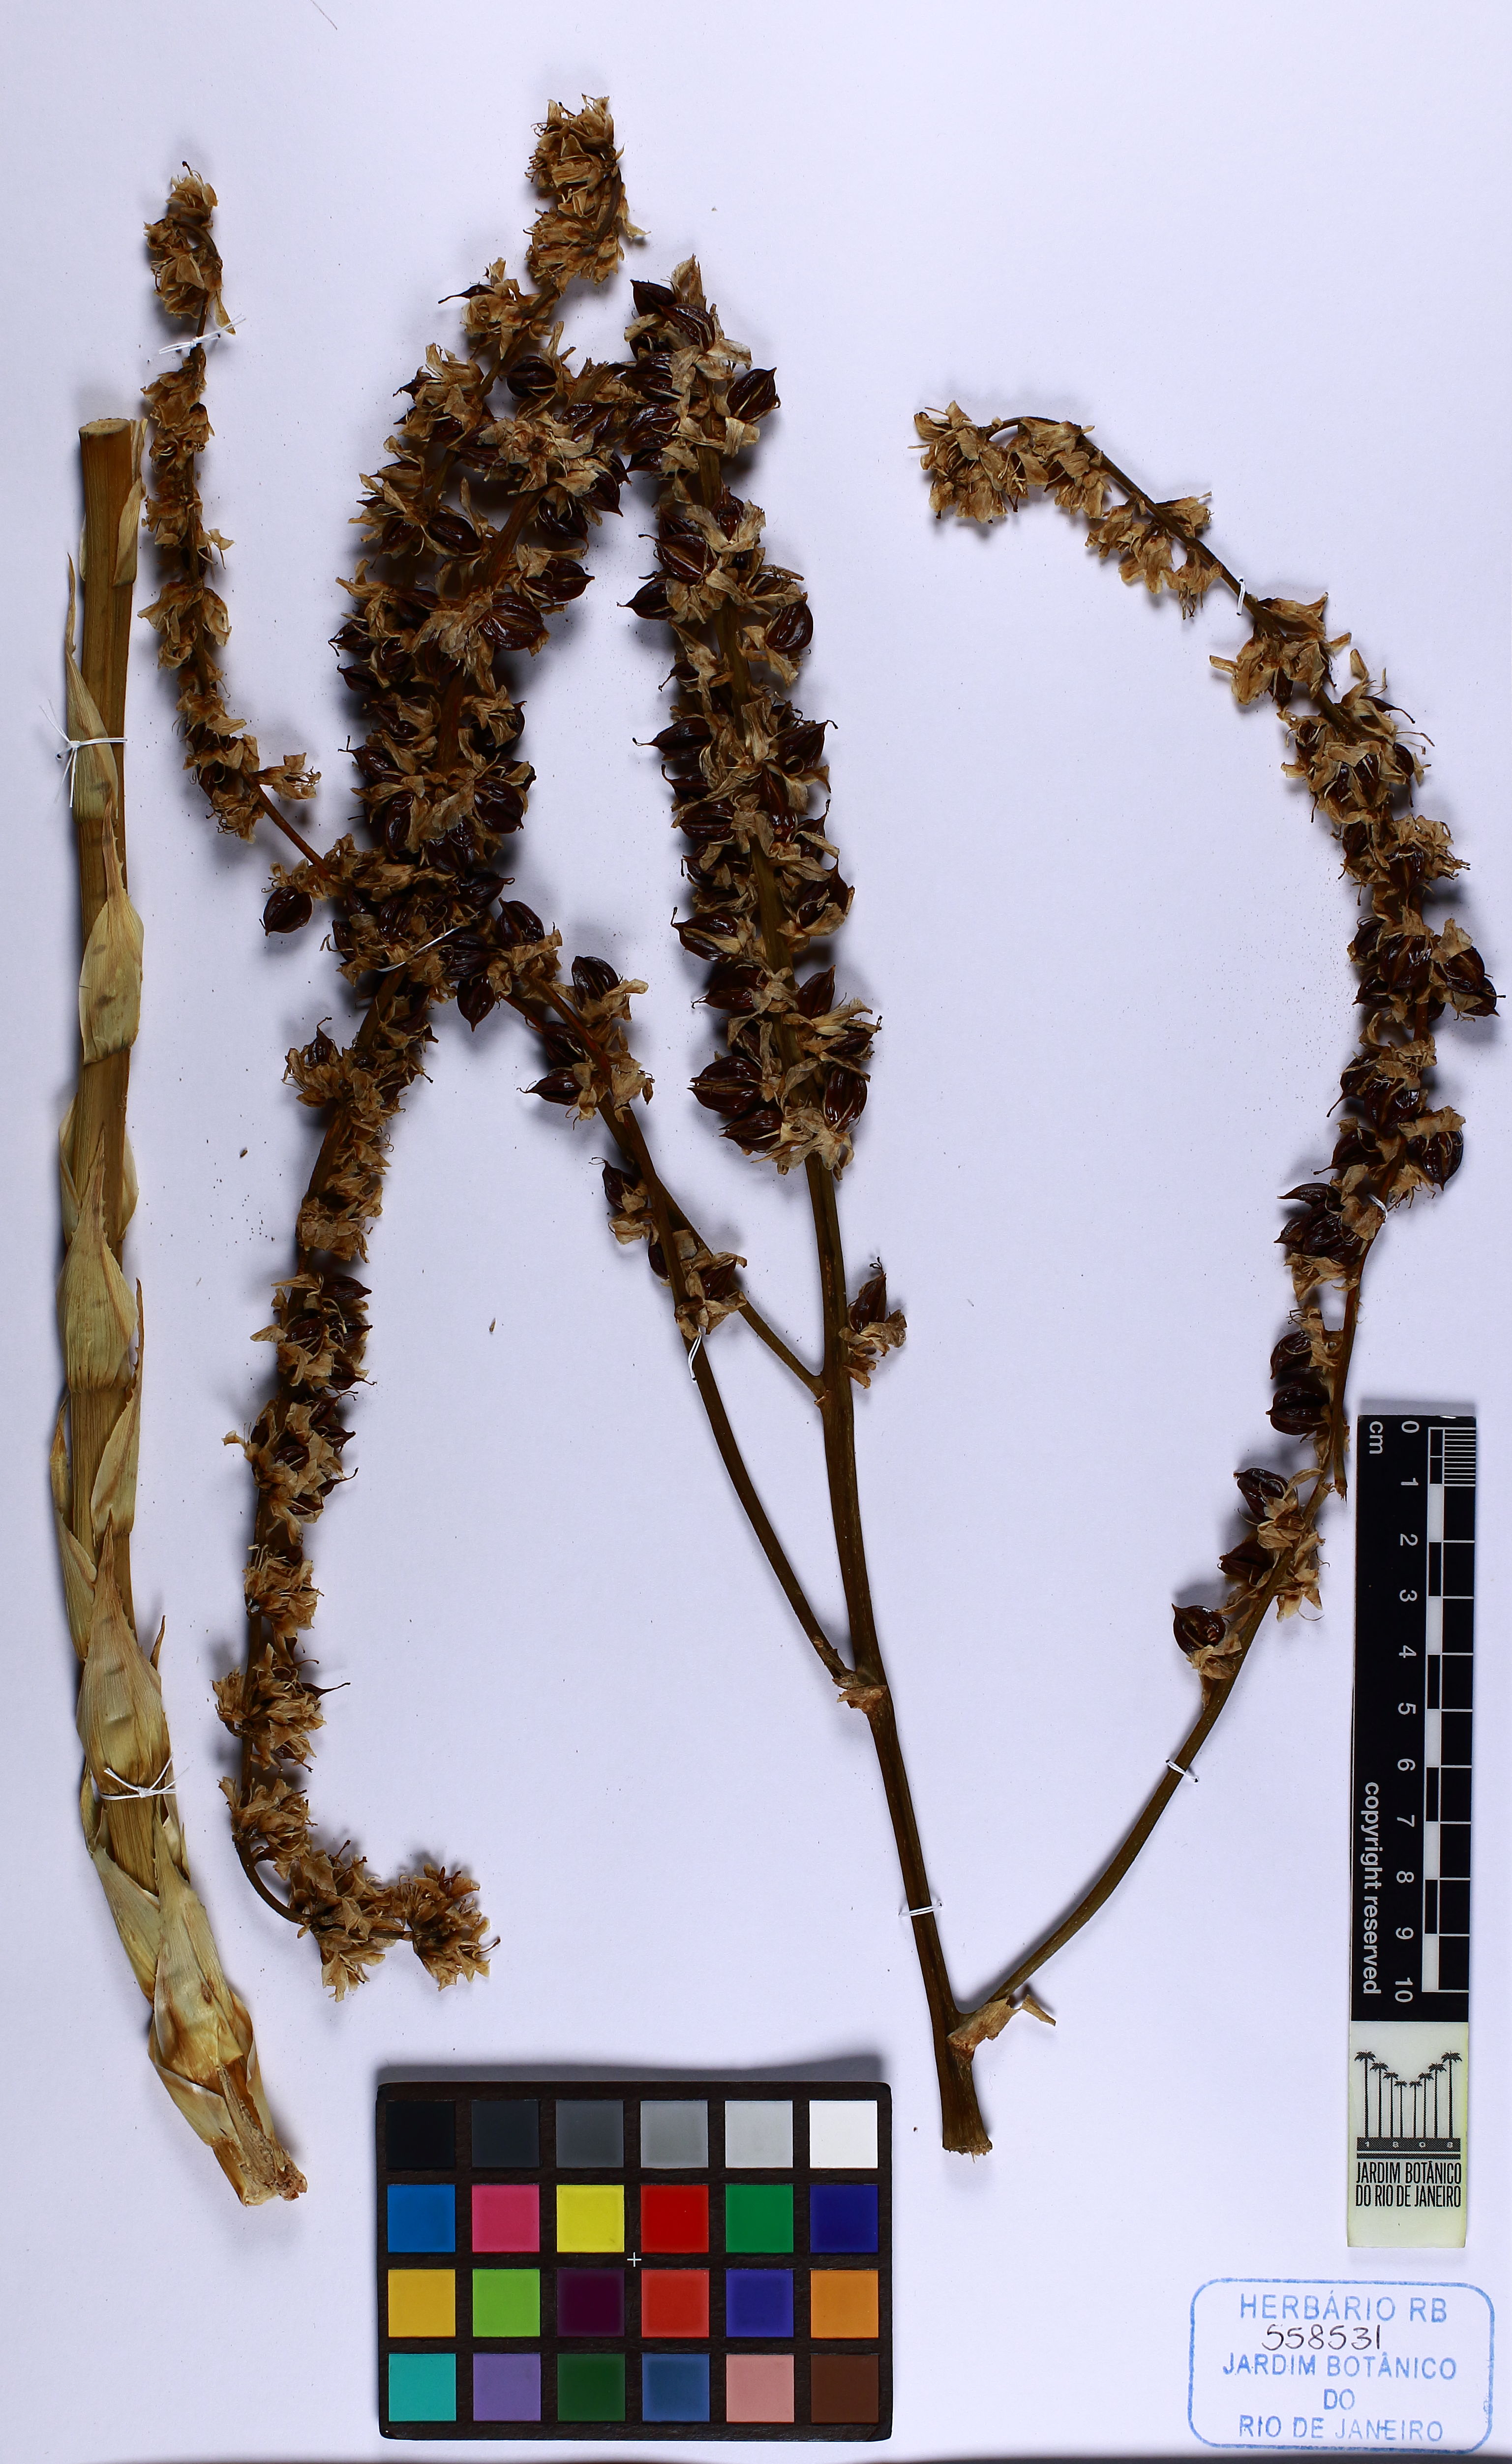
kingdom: Plantae
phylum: Tracheophyta
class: Liliopsida
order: Poales
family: Bromeliaceae
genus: Dyckia
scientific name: Dyckia distachya
